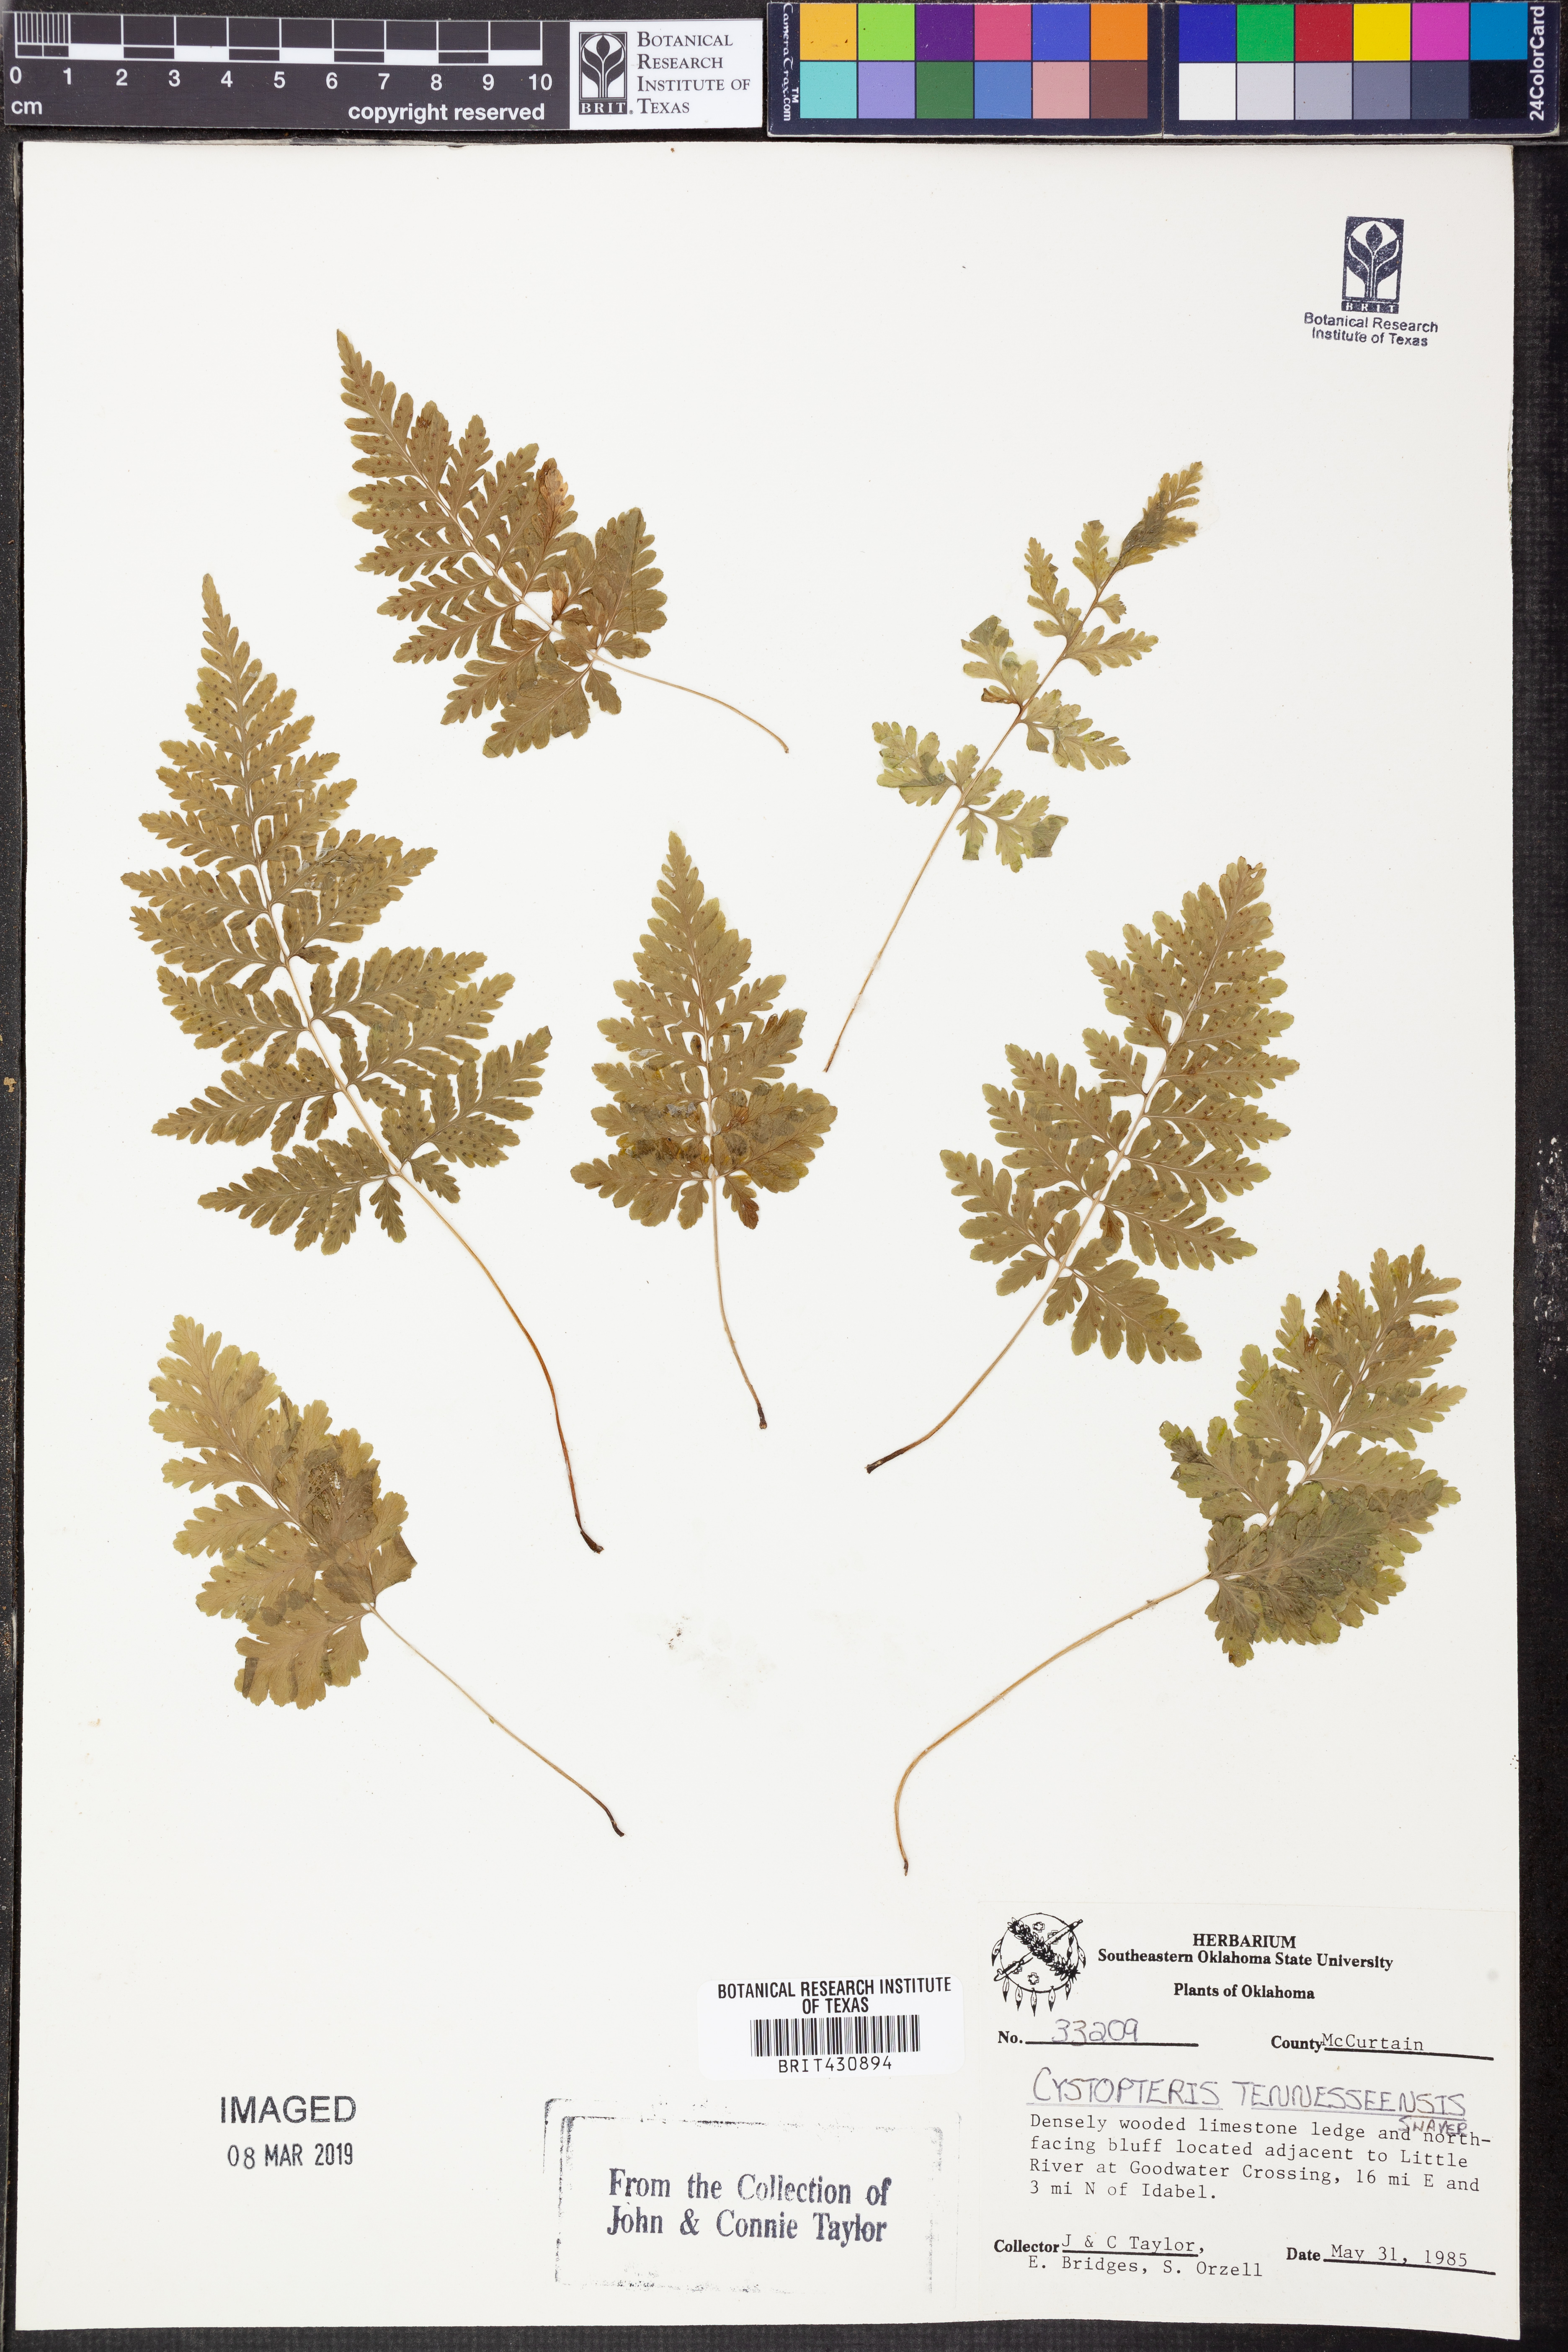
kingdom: Plantae
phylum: Tracheophyta
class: Polypodiopsida
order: Polypodiales
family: Cystopteridaceae
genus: Cystopteris
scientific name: Cystopteris tennesseensis
